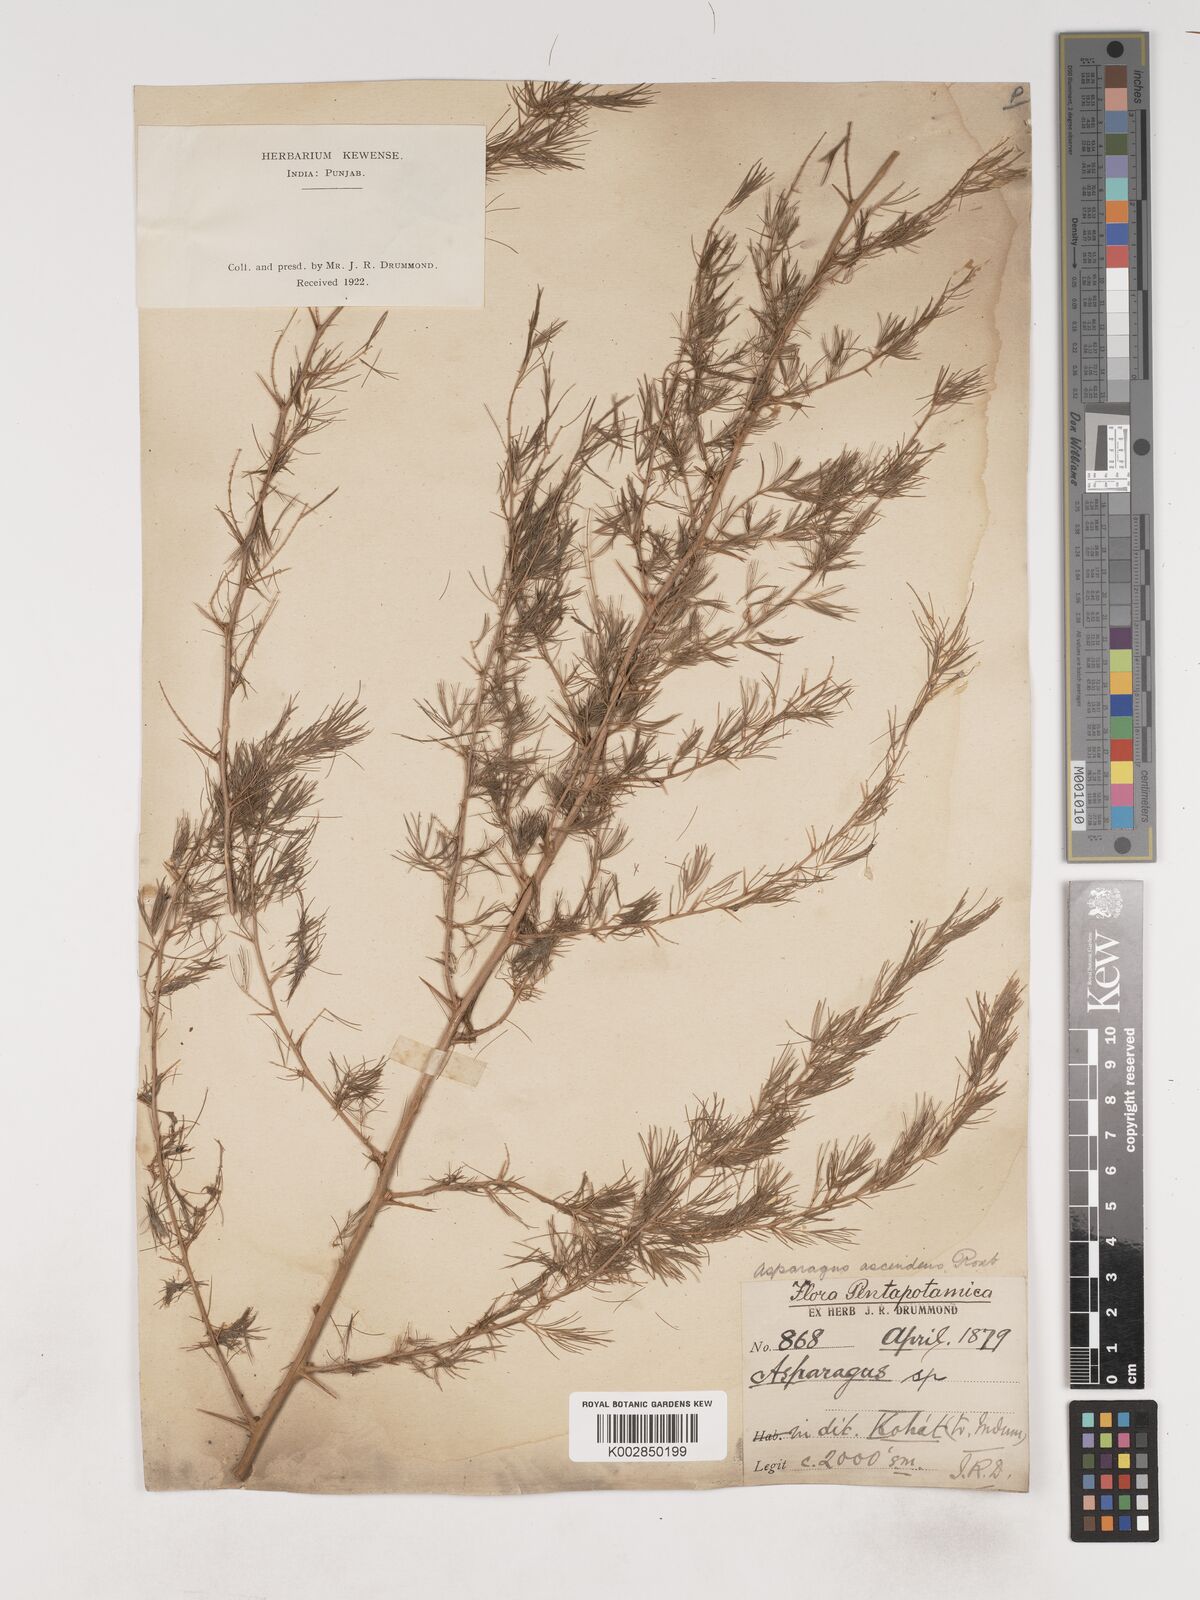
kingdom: Plantae
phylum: Tracheophyta
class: Liliopsida
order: Asparagales
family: Asparagaceae
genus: Asparagus
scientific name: Asparagus adscendens
